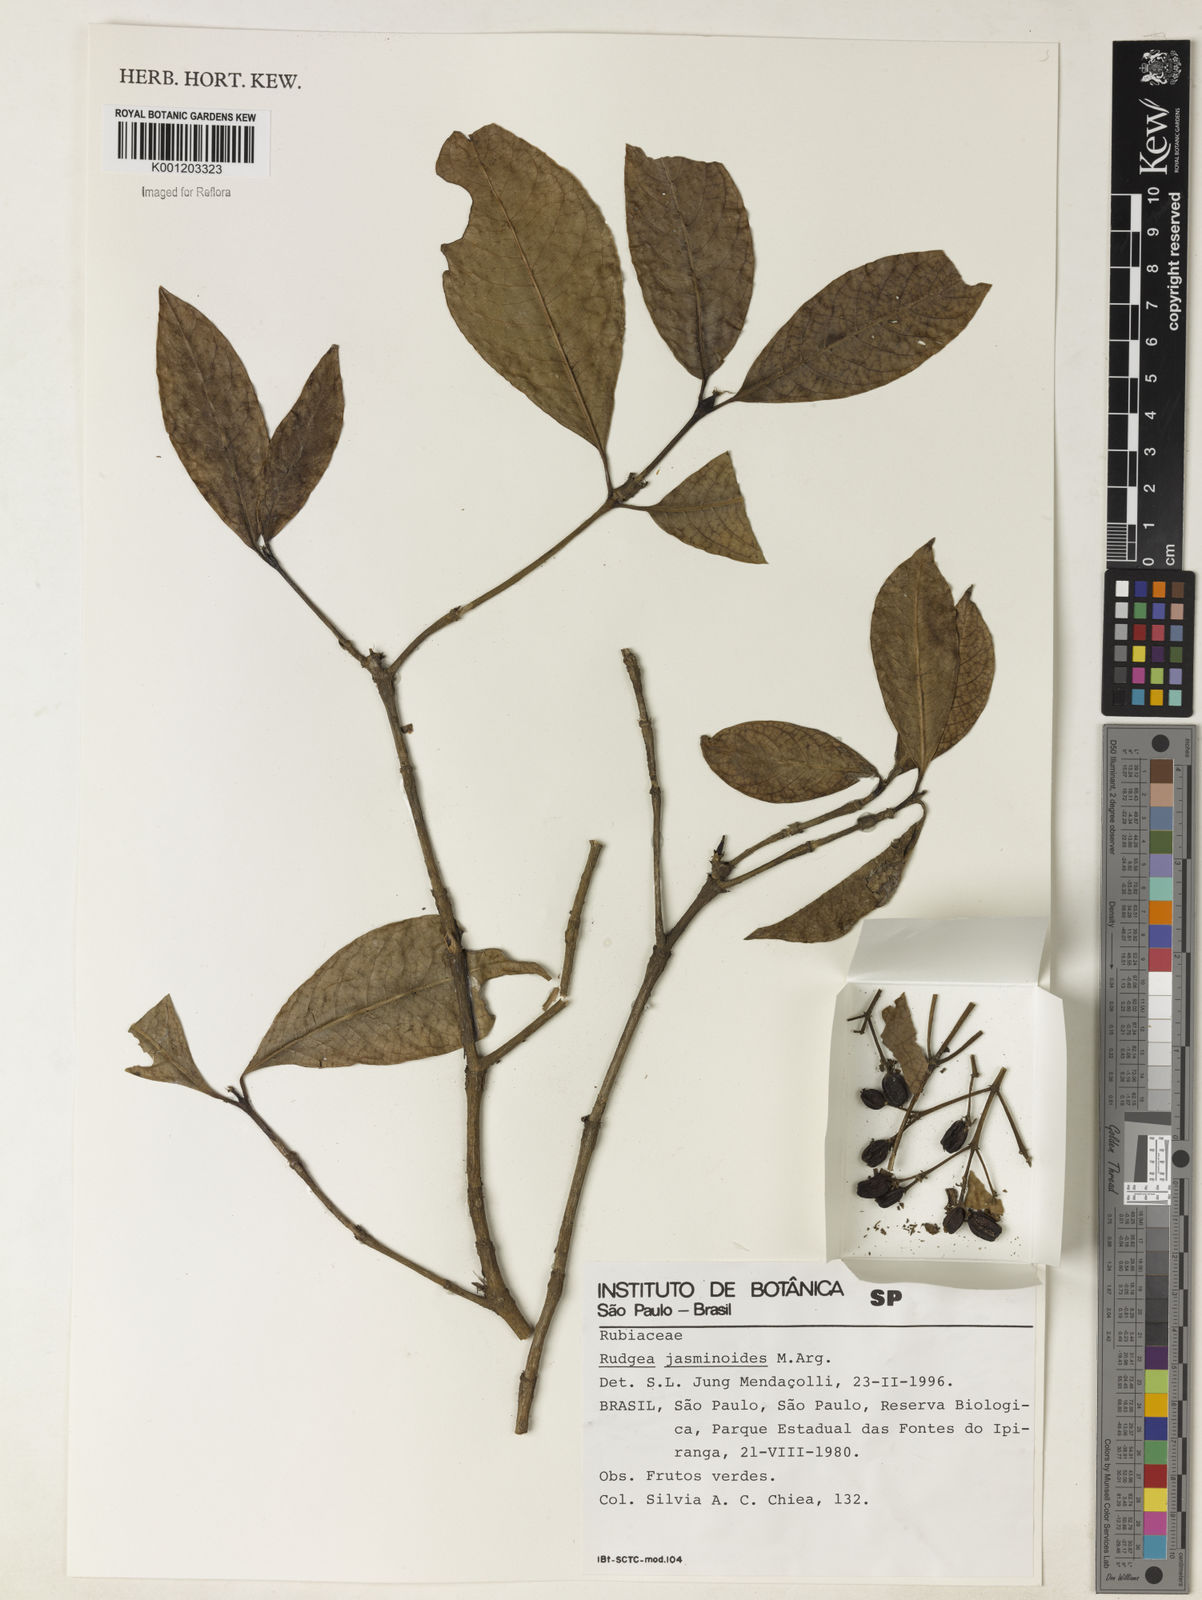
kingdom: Plantae
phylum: Tracheophyta
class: Magnoliopsida
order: Gentianales
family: Rubiaceae
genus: Rudgea
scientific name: Rudgea
